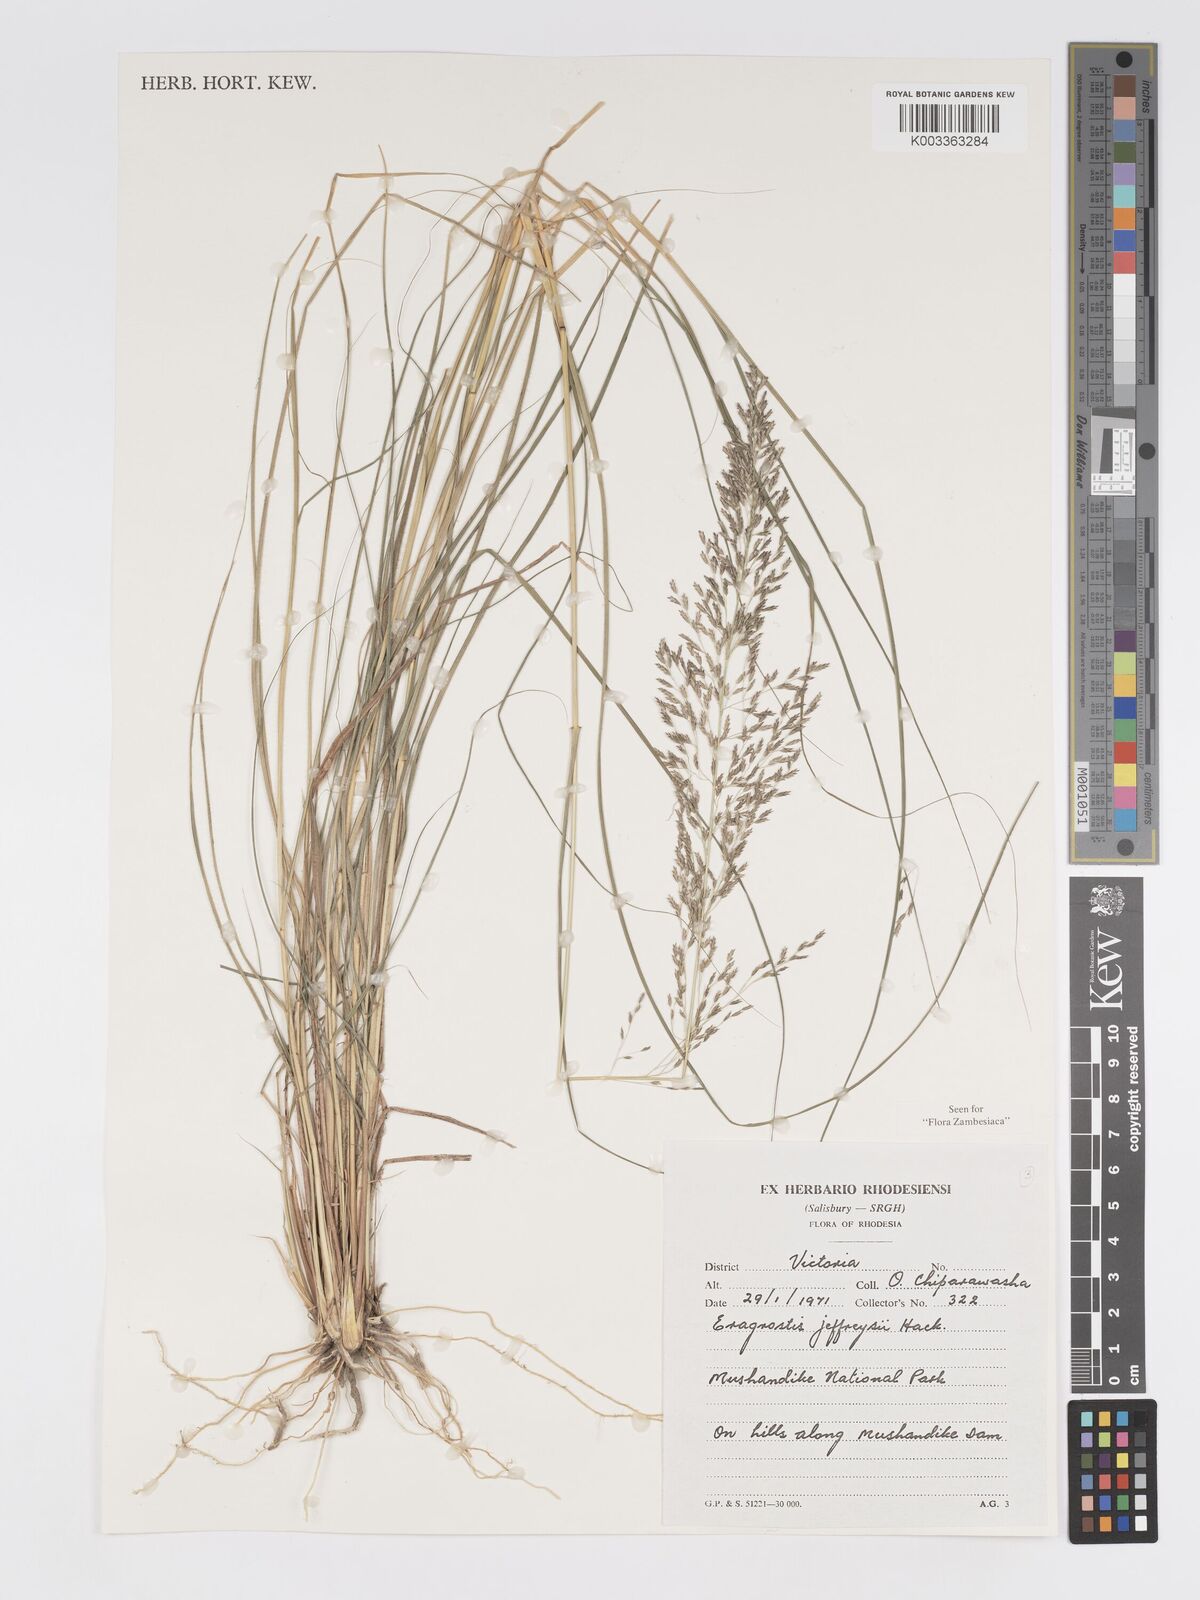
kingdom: Plantae
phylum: Tracheophyta
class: Liliopsida
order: Poales
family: Poaceae
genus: Eragrostis
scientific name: Eragrostis curvula
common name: African love-grass
